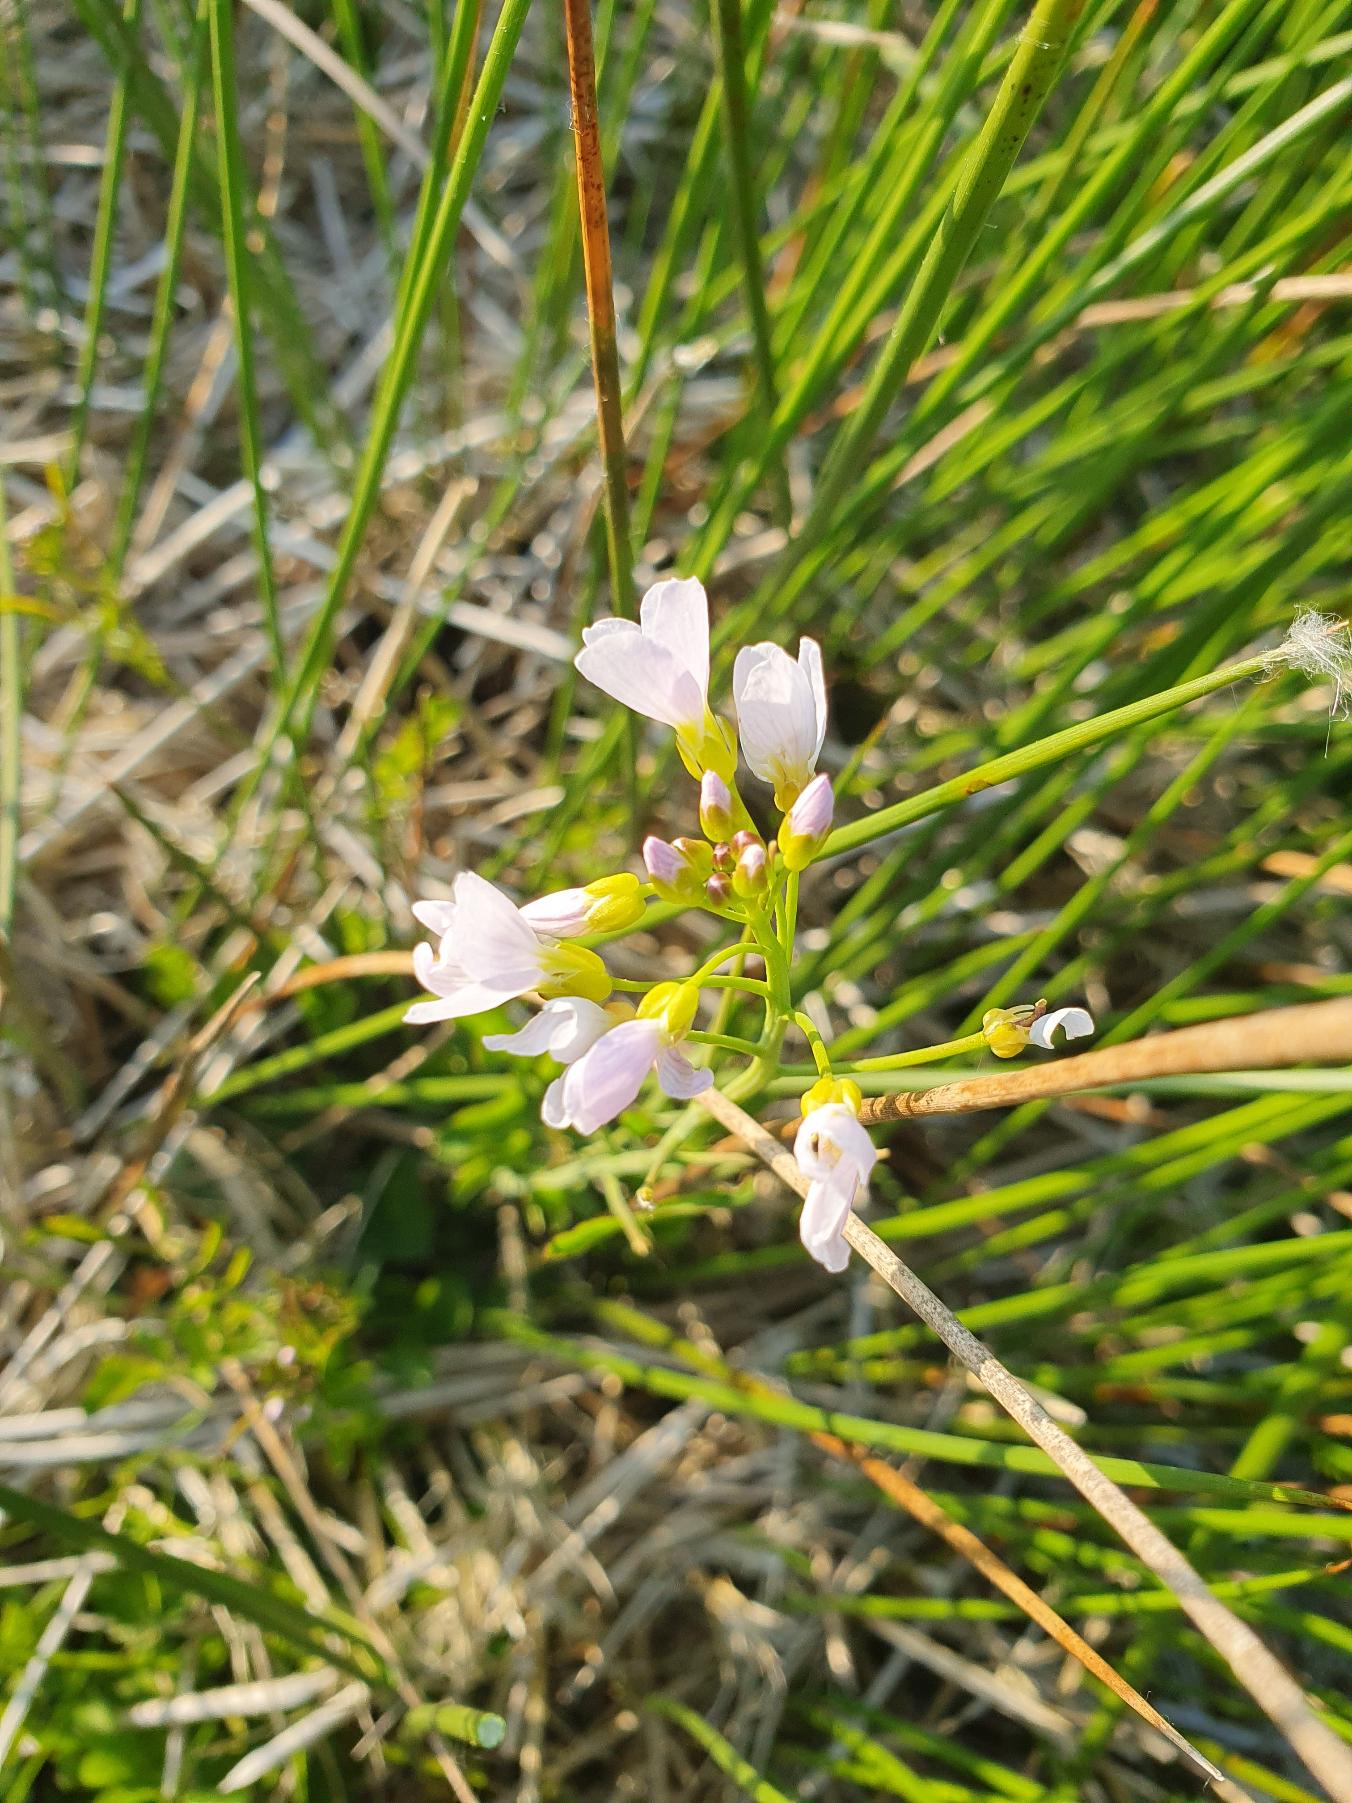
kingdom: Plantae
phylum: Tracheophyta
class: Magnoliopsida
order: Brassicales
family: Brassicaceae
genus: Cardamine
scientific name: Cardamine pratensis
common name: Engkarse
